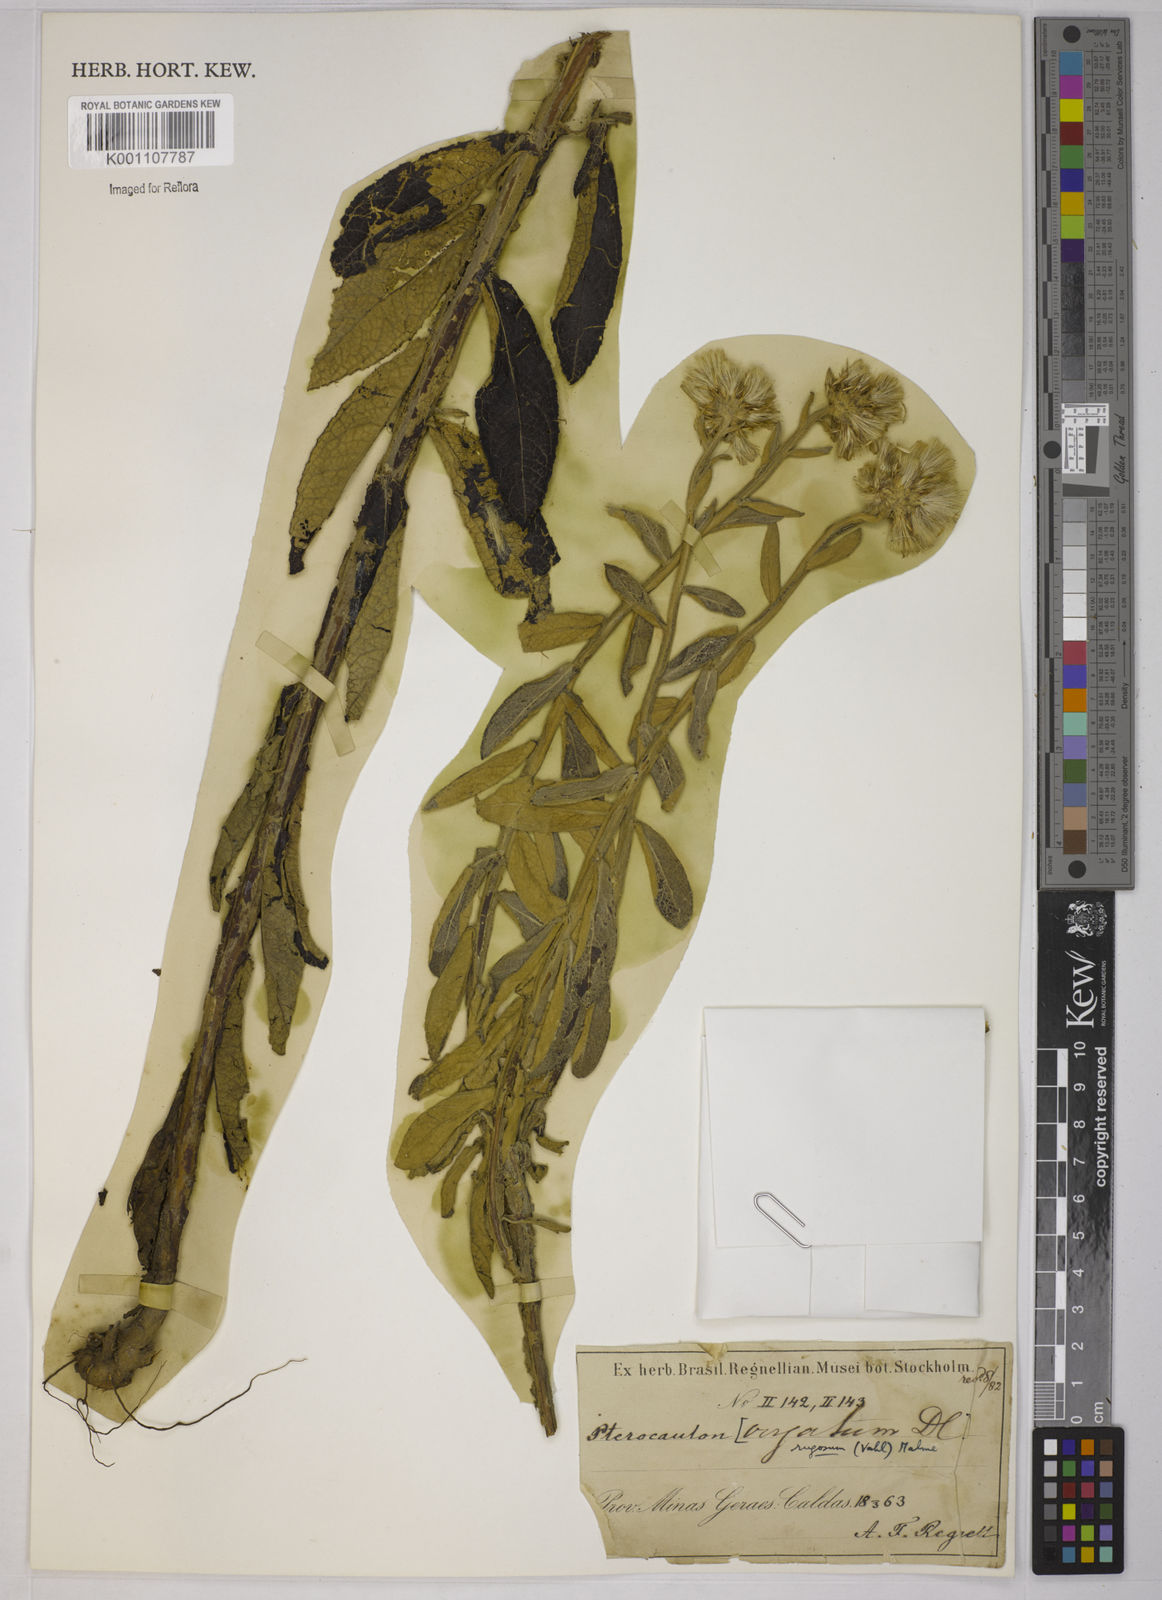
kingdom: Plantae
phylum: Tracheophyta
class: Magnoliopsida
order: Asterales
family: Asteraceae
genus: Pterocaulon
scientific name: Pterocaulon angustifolium
